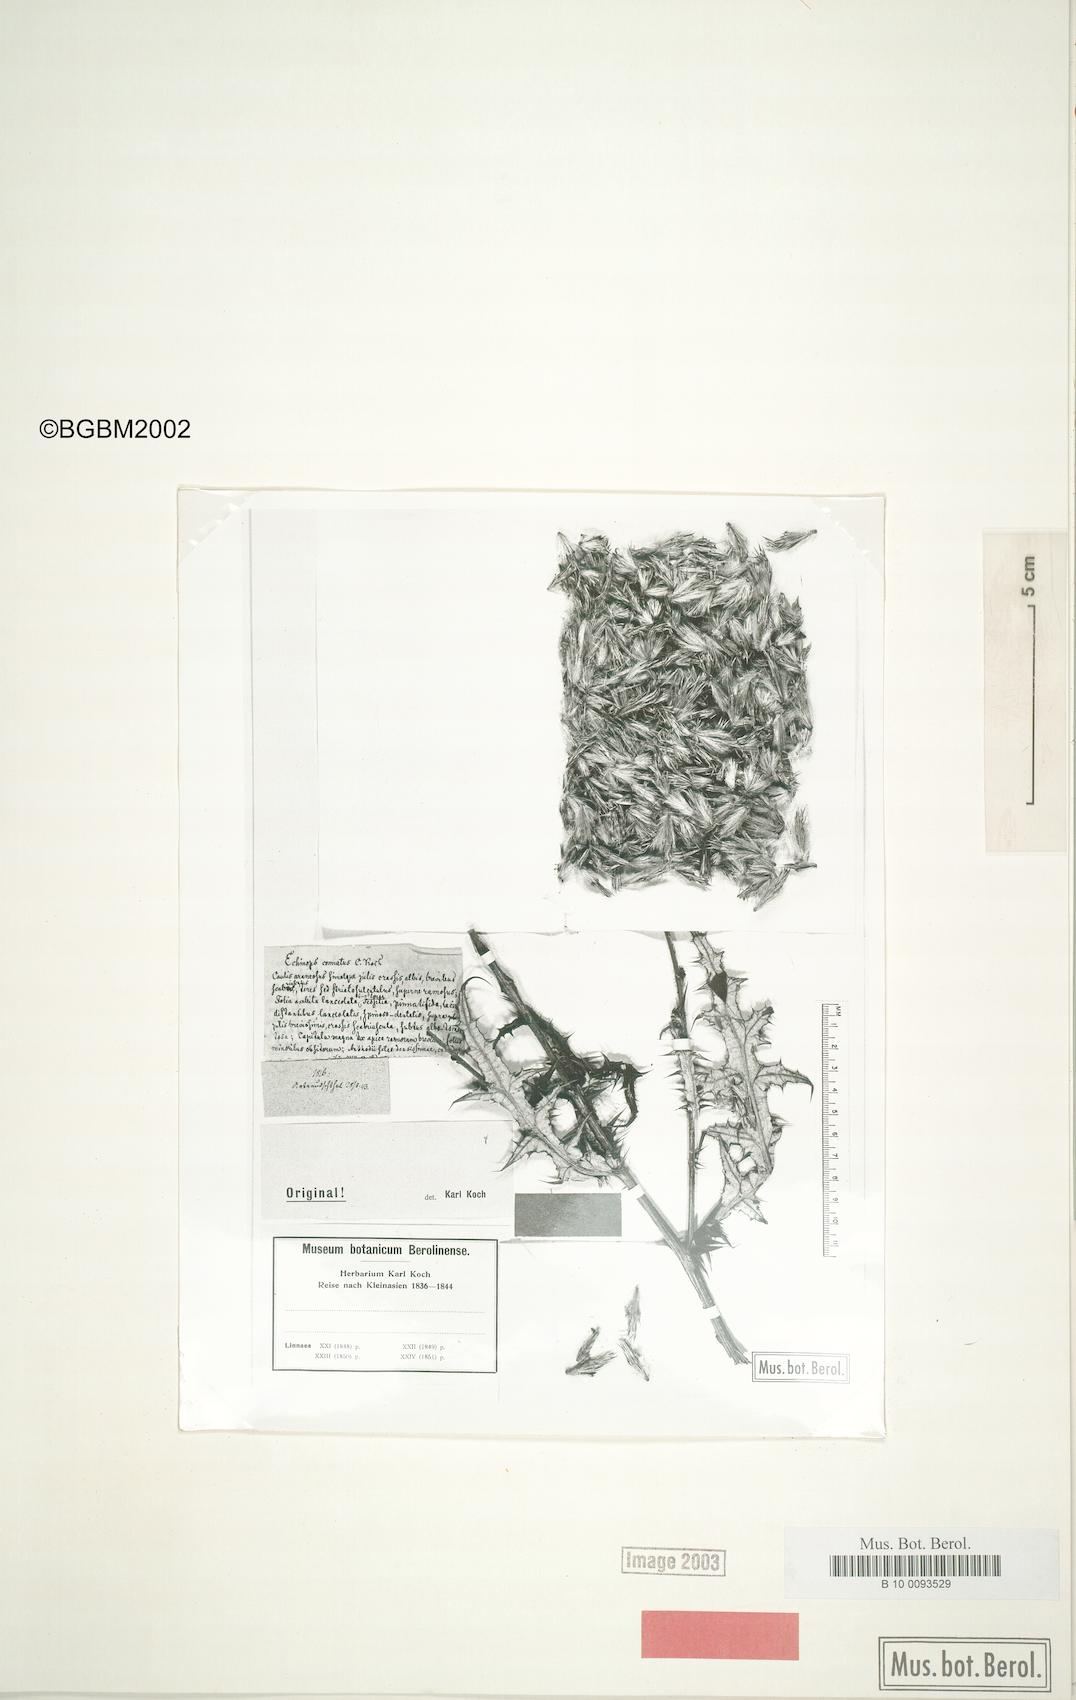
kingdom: Plantae
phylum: Tracheophyta
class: Magnoliopsida
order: Asterales
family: Asteraceae
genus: Echinops
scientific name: Echinops spinosissimus
